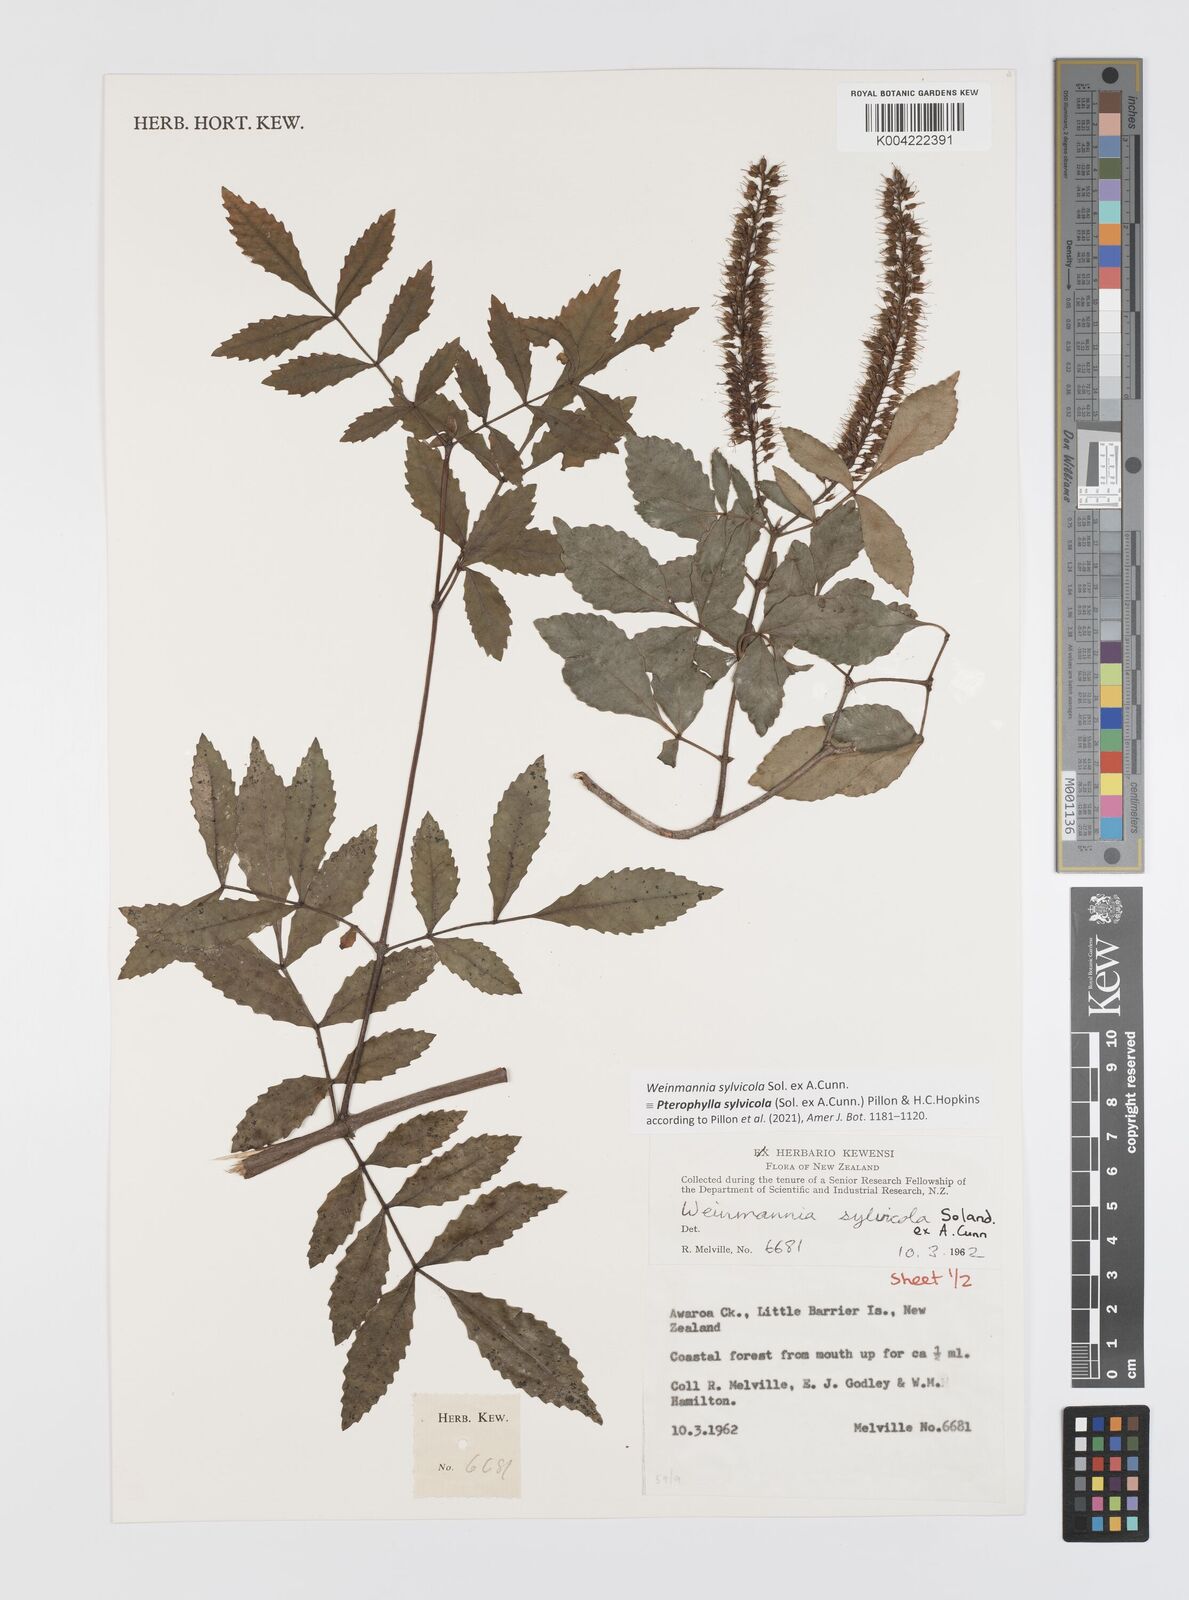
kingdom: Plantae
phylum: Tracheophyta
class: Magnoliopsida
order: Oxalidales
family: Cunoniaceae
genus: Pterophylla
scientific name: Pterophylla sylvicola
